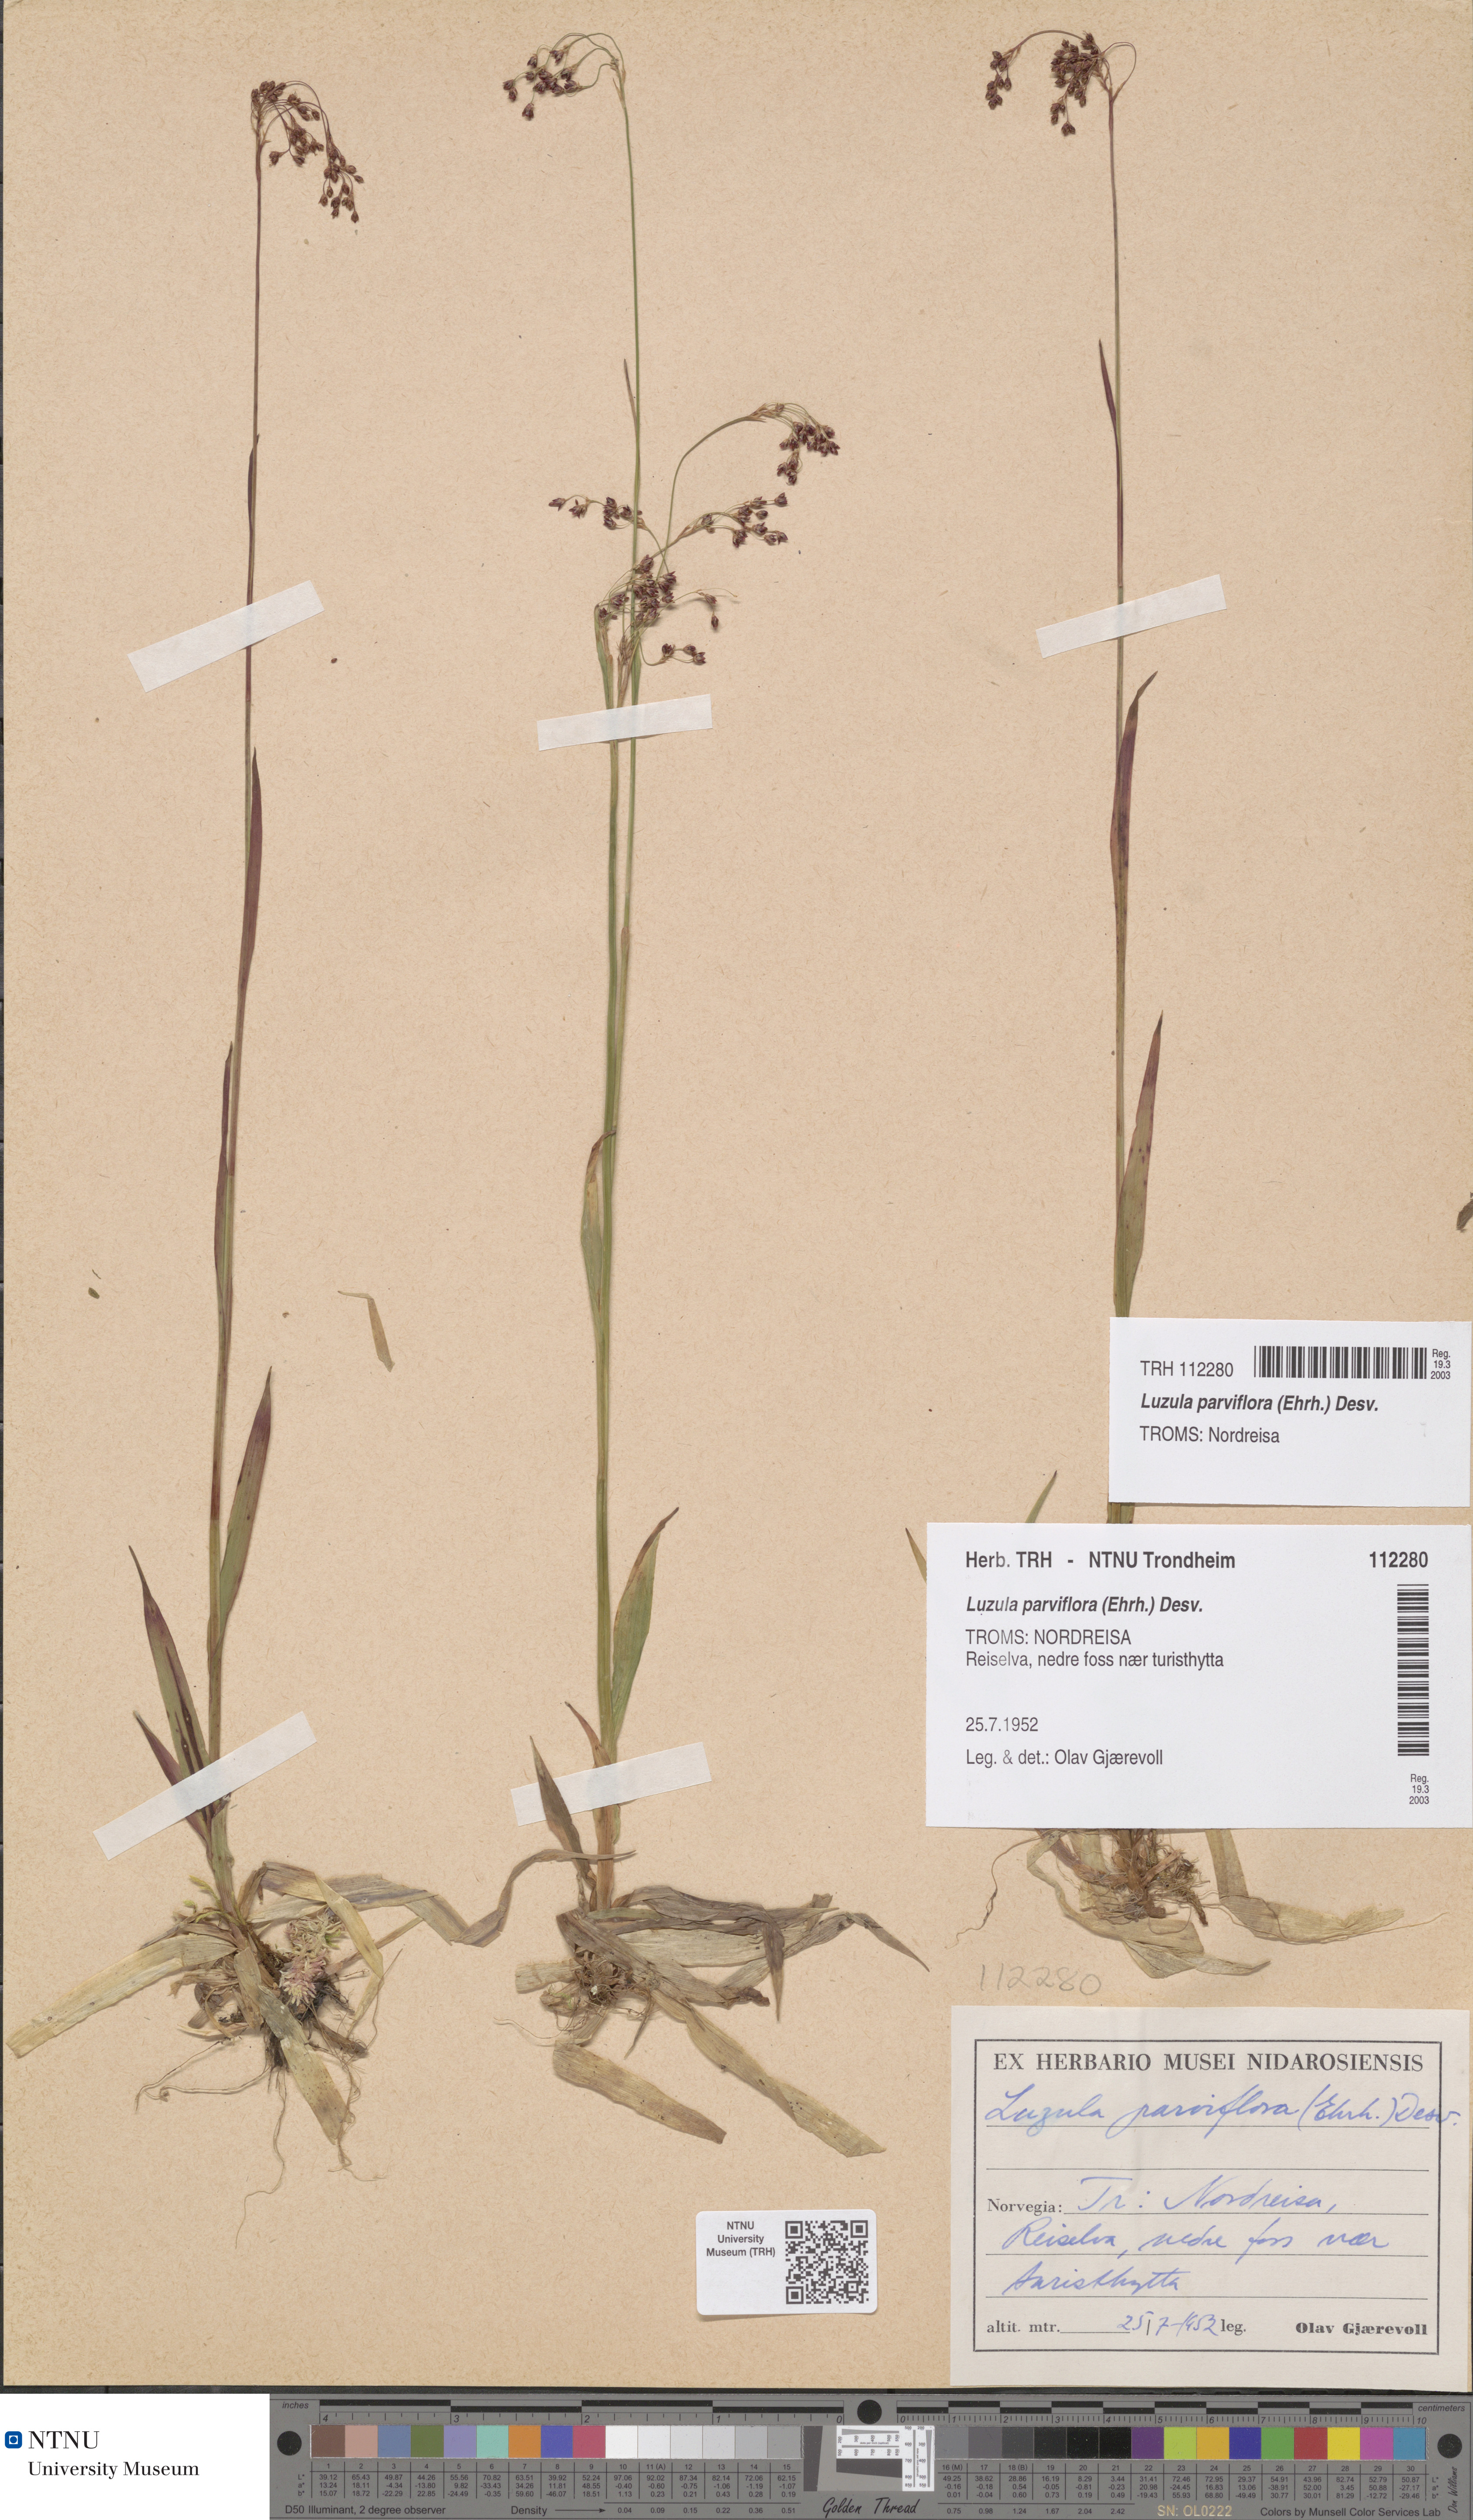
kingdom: Plantae
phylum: Tracheophyta
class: Liliopsida
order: Poales
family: Juncaceae
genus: Luzula
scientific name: Luzula parviflora
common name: Millet woodrush
